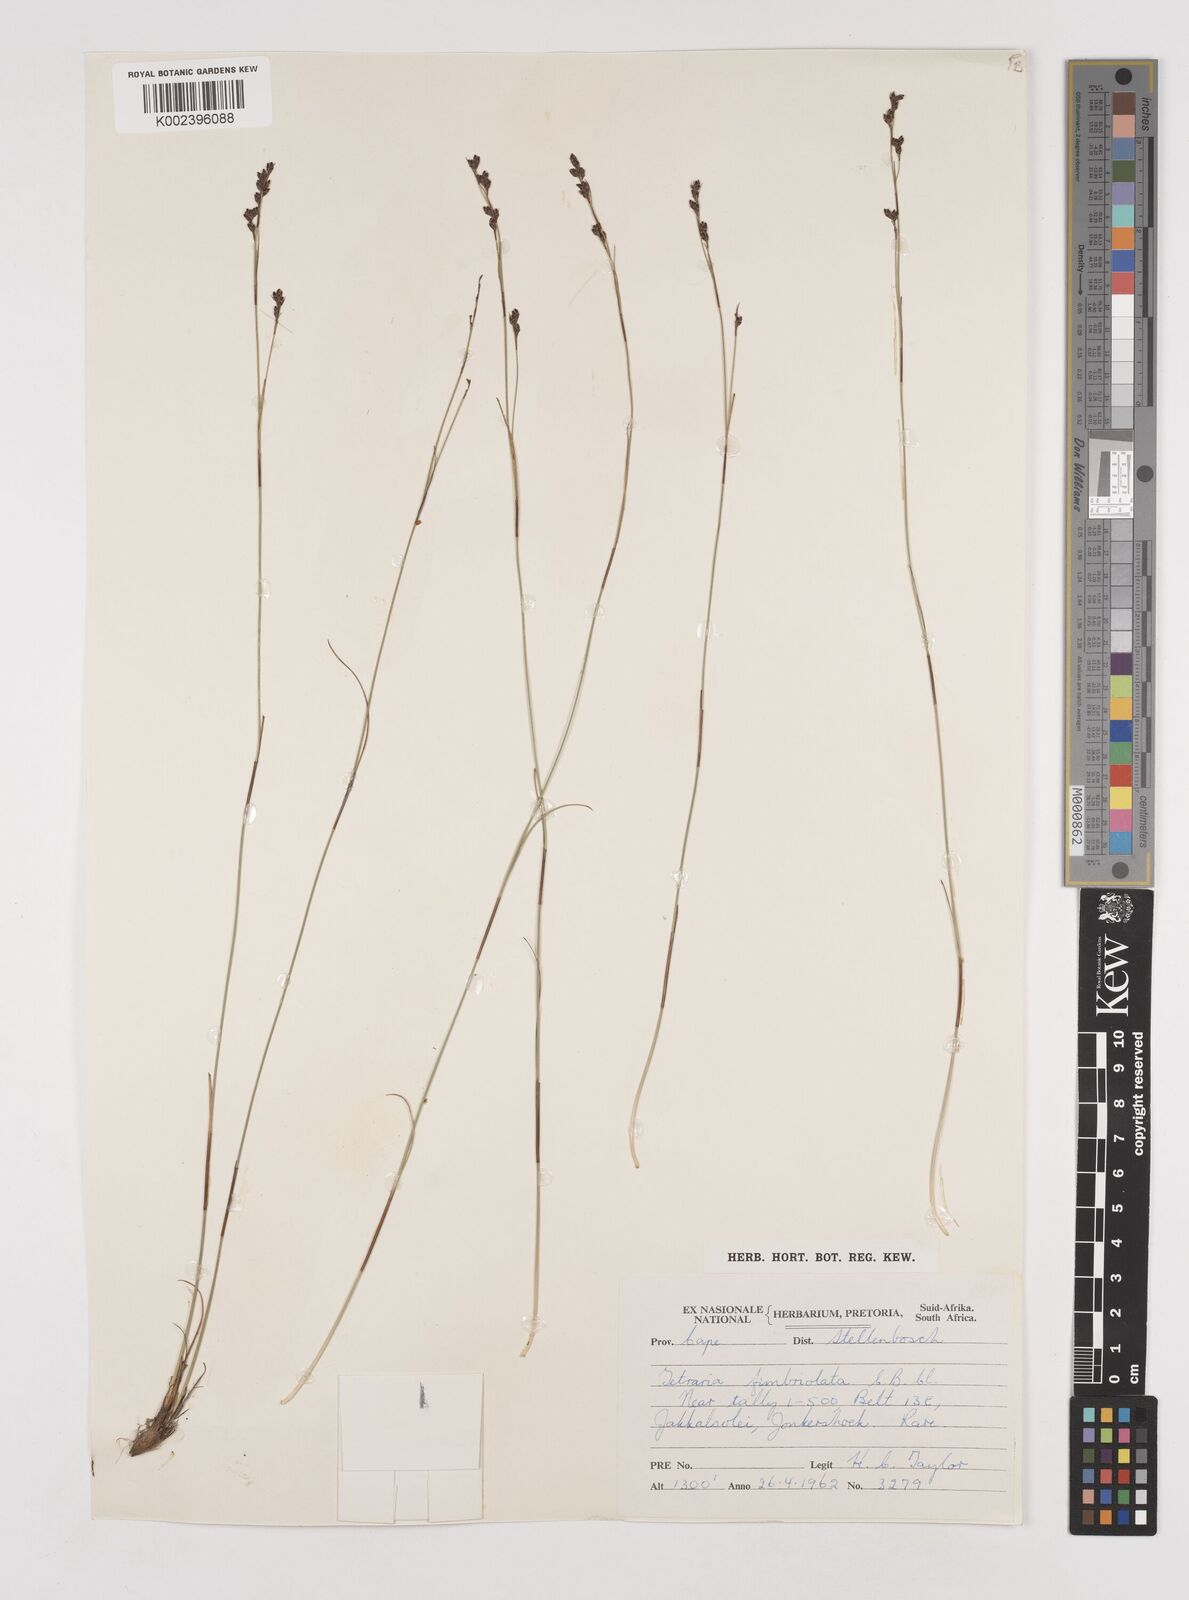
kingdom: Plantae
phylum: Tracheophyta
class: Liliopsida
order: Poales
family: Cyperaceae
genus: Tetraria
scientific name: Tetraria fimbriolata
